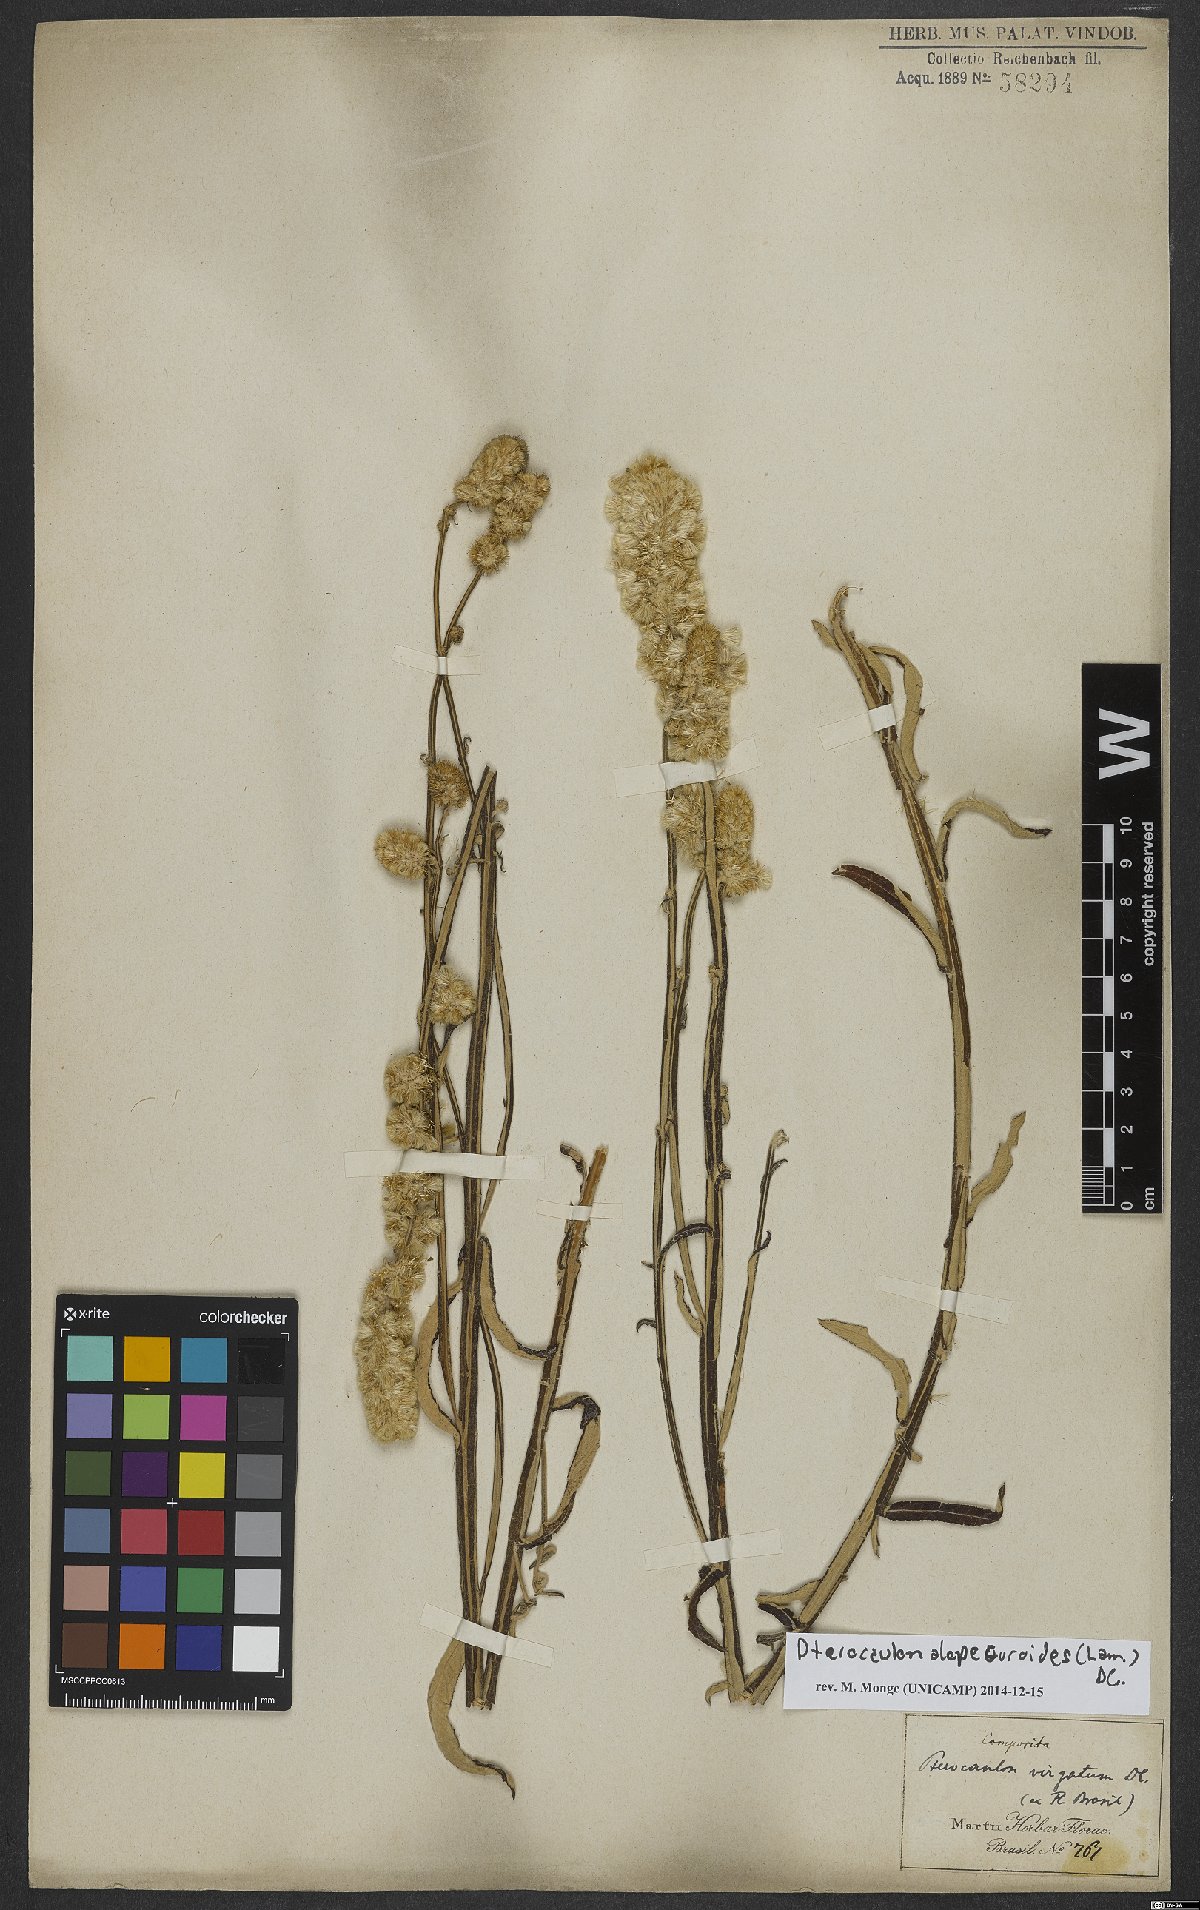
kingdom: Plantae
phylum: Tracheophyta
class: Magnoliopsida
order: Asterales
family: Asteraceae
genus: Pterocaulon
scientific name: Pterocaulon alopecuroides
